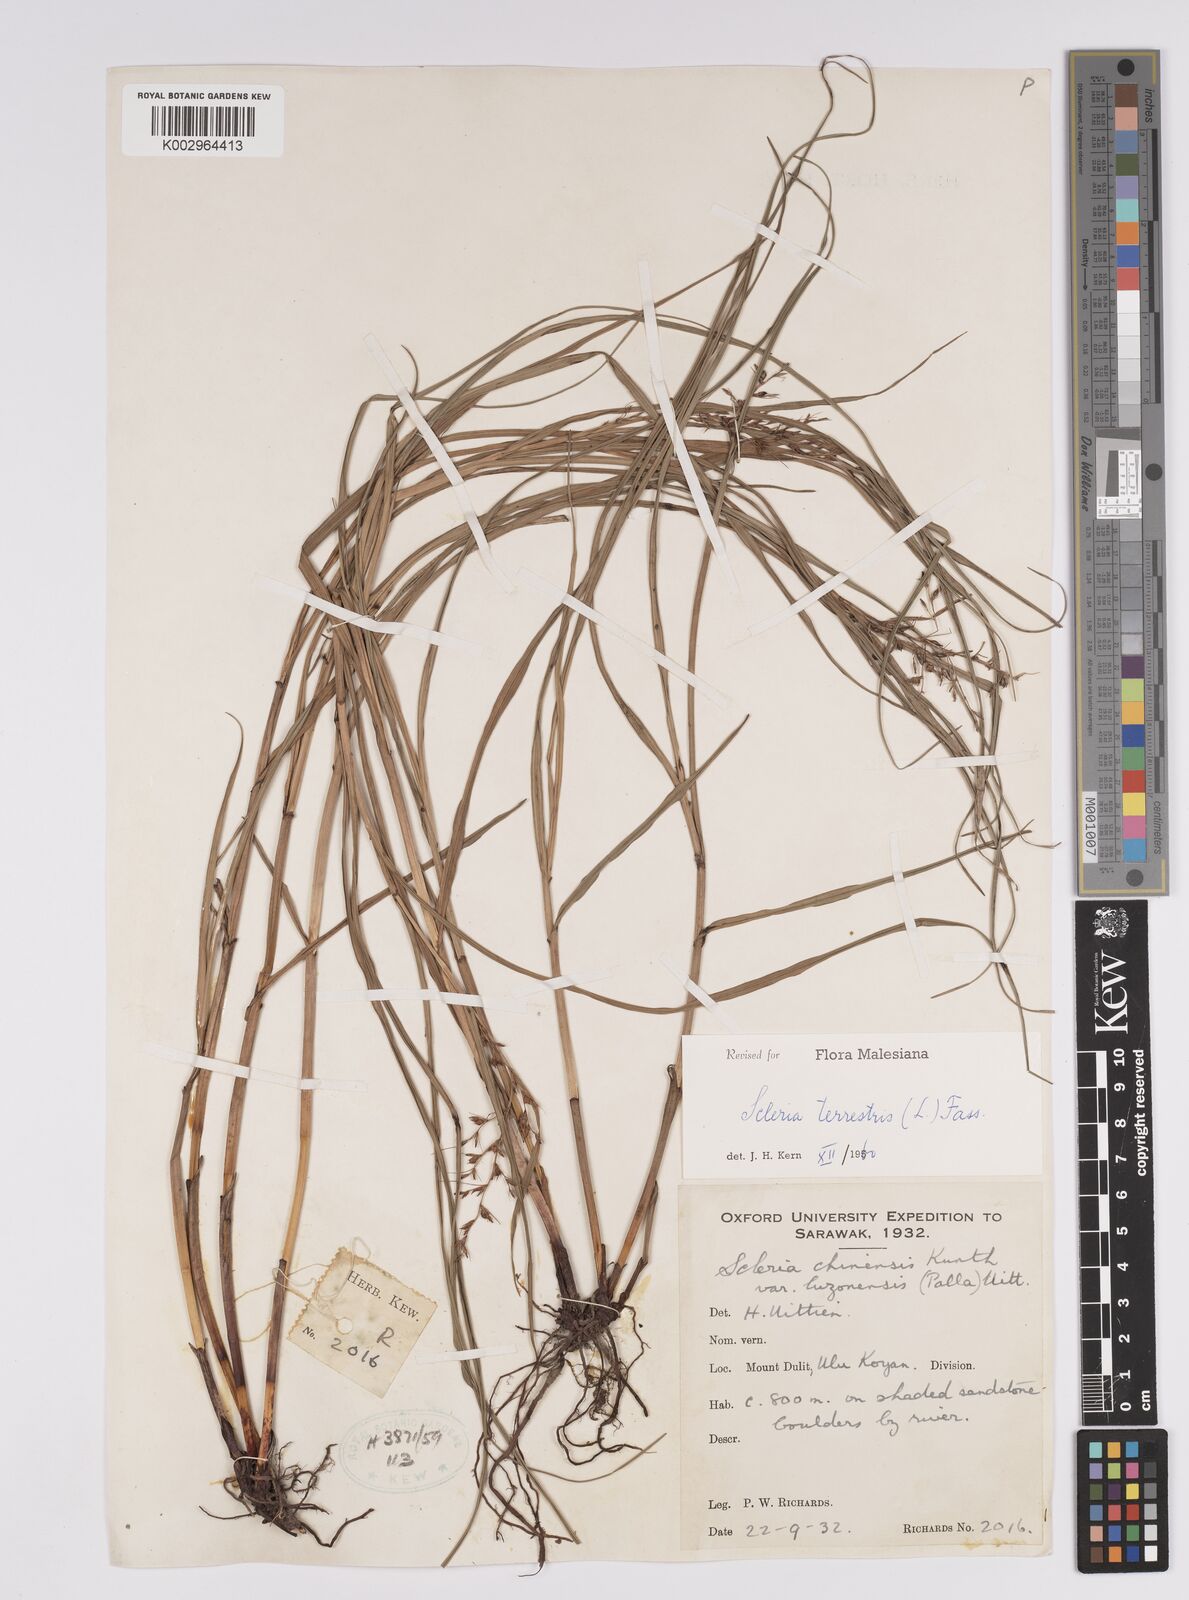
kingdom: Plantae
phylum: Tracheophyta
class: Liliopsida
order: Poales
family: Cyperaceae
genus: Scleria
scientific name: Scleria terrestris
